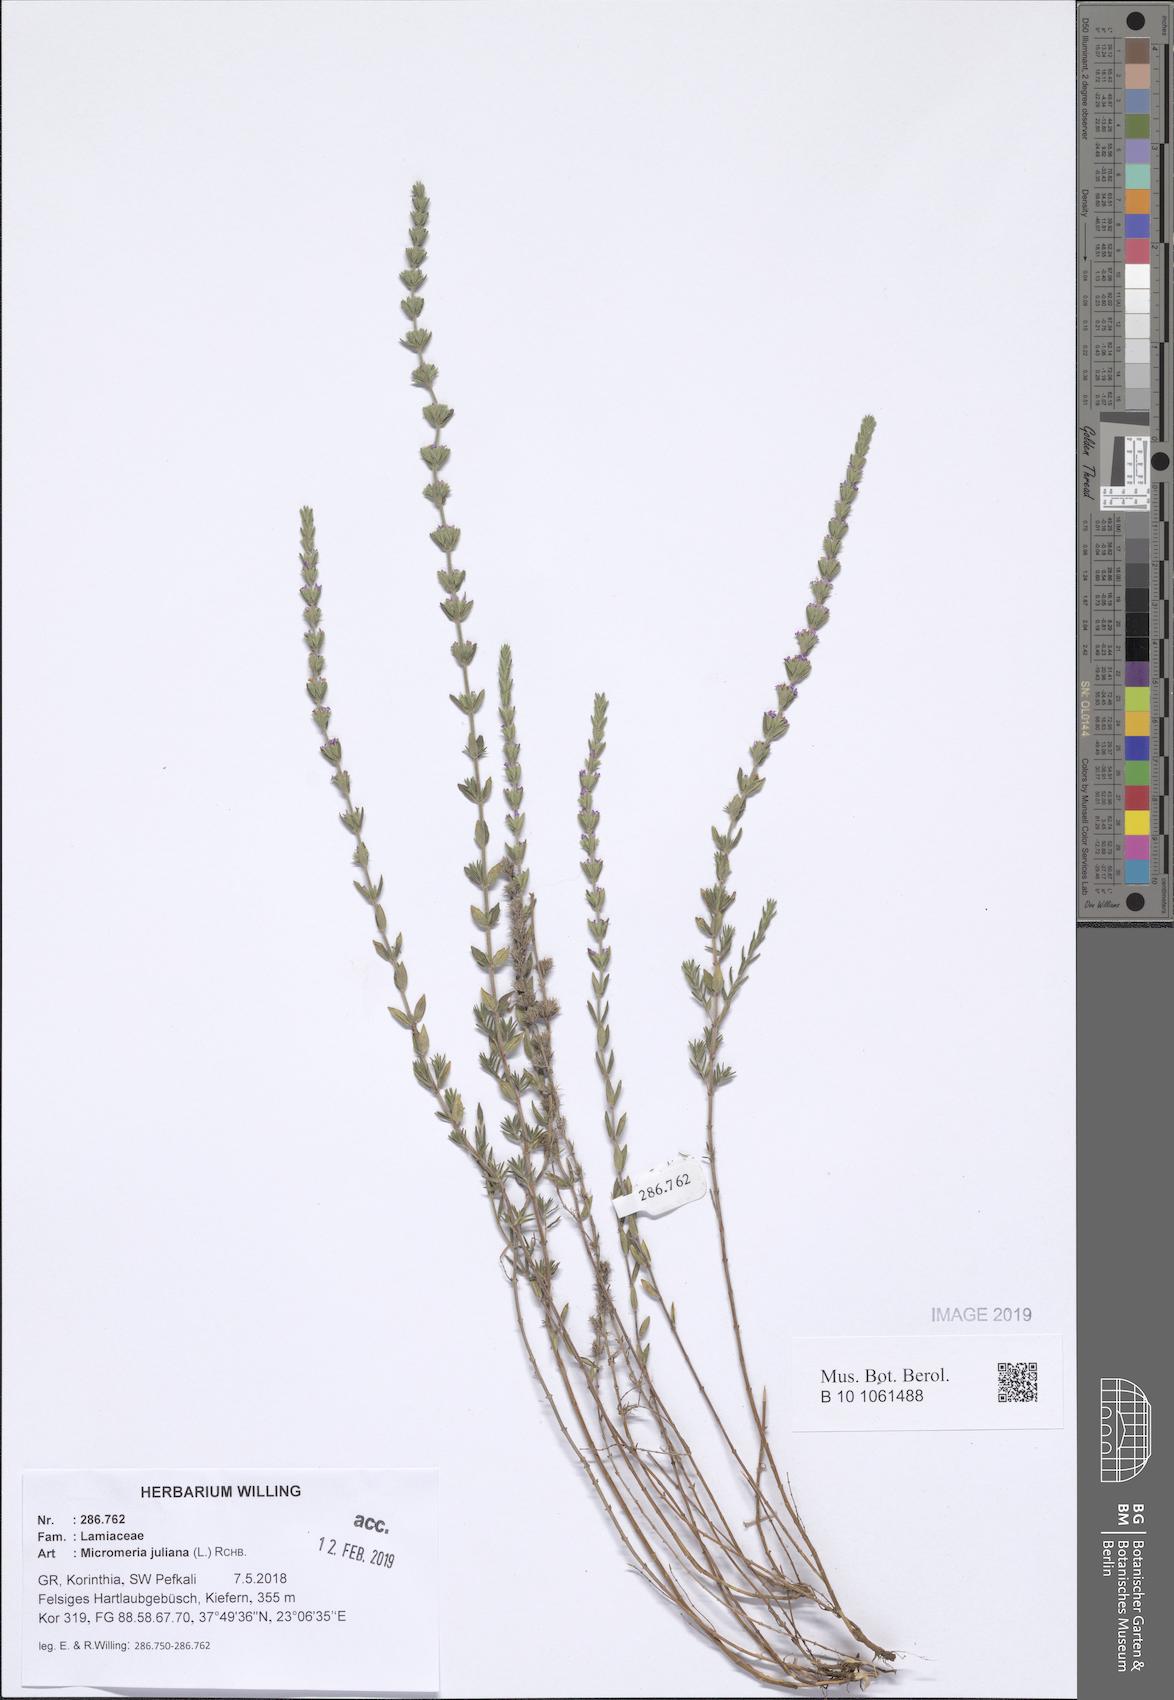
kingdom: Plantae
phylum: Tracheophyta
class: Magnoliopsida
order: Lamiales
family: Lamiaceae
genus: Micromeria
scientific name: Micromeria juliana
